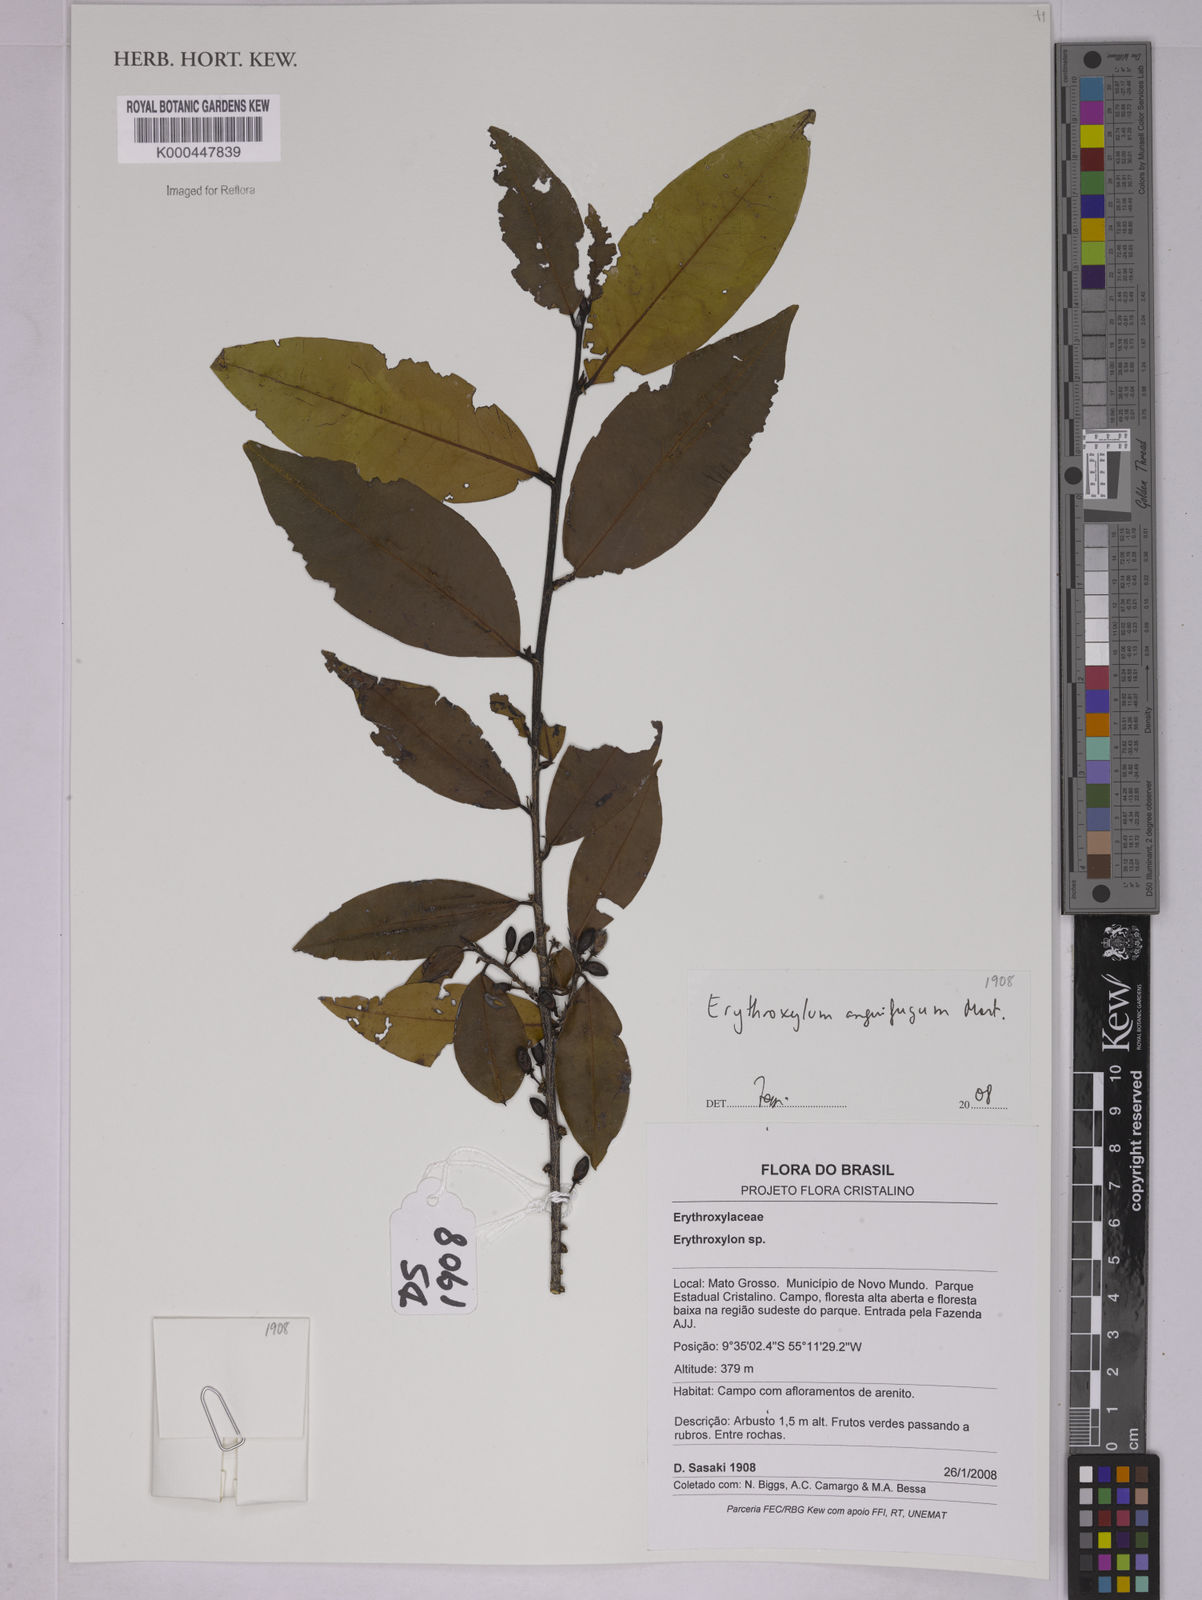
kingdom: Plantae
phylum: Tracheophyta
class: Magnoliopsida
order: Malpighiales
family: Erythroxylaceae
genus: Erythroxylum
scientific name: Erythroxylum anguifugum
